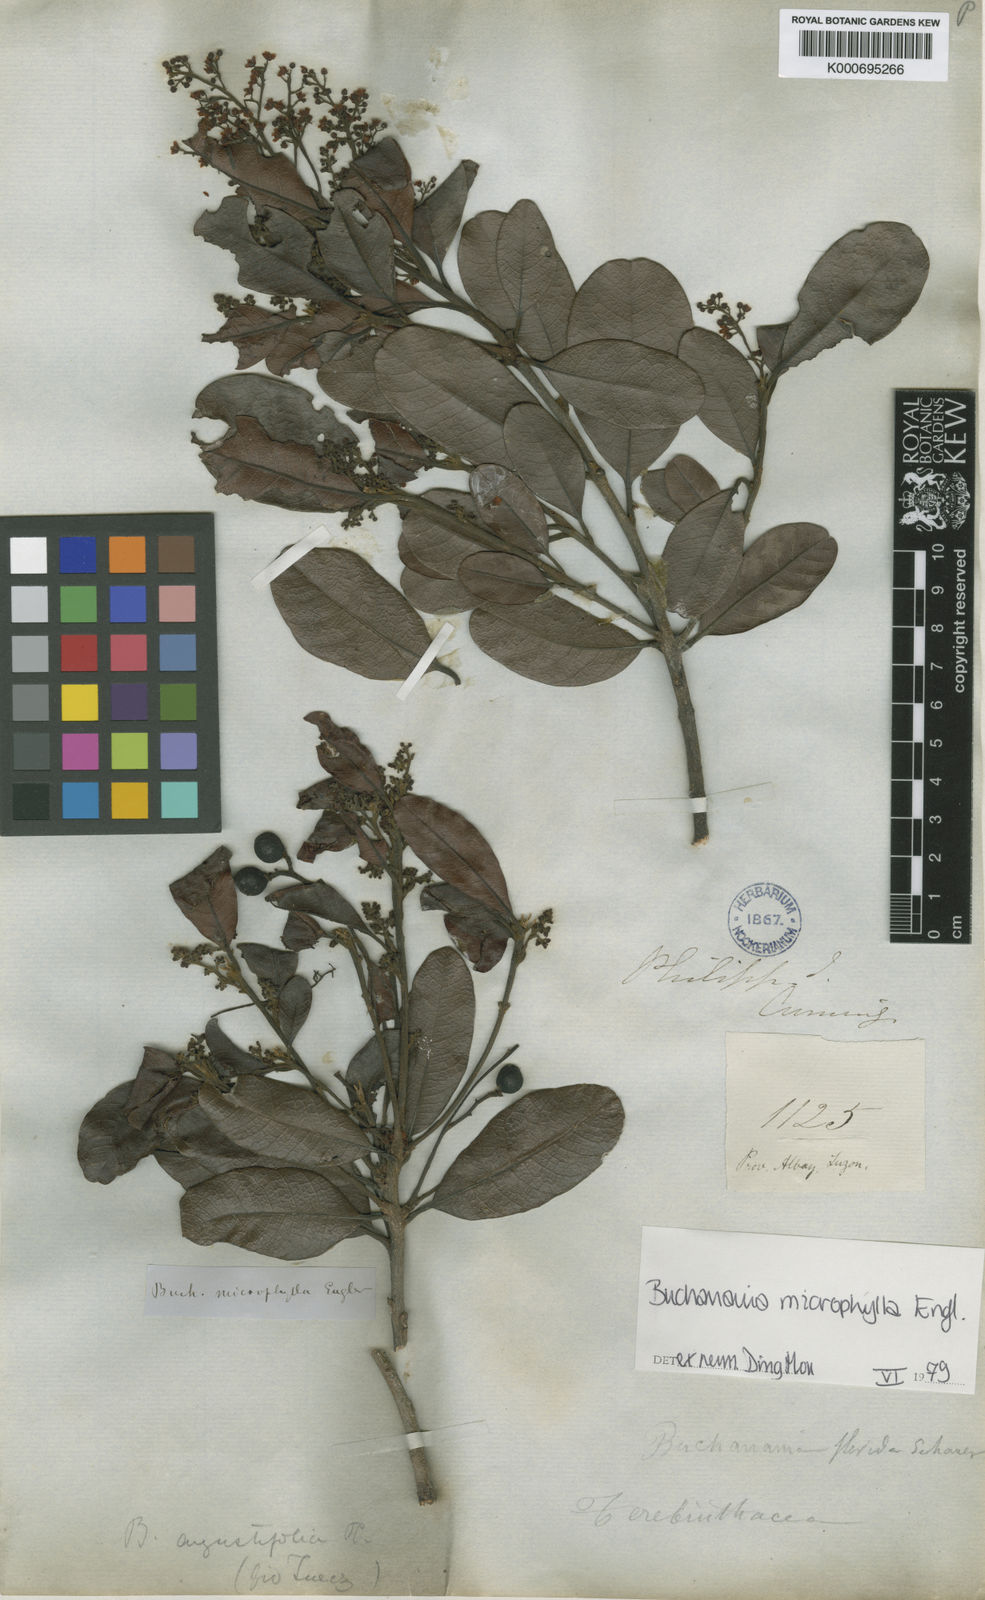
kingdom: Plantae
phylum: Tracheophyta
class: Magnoliopsida
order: Sapindales
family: Anacardiaceae
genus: Buchanania
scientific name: Buchanania microphylla
